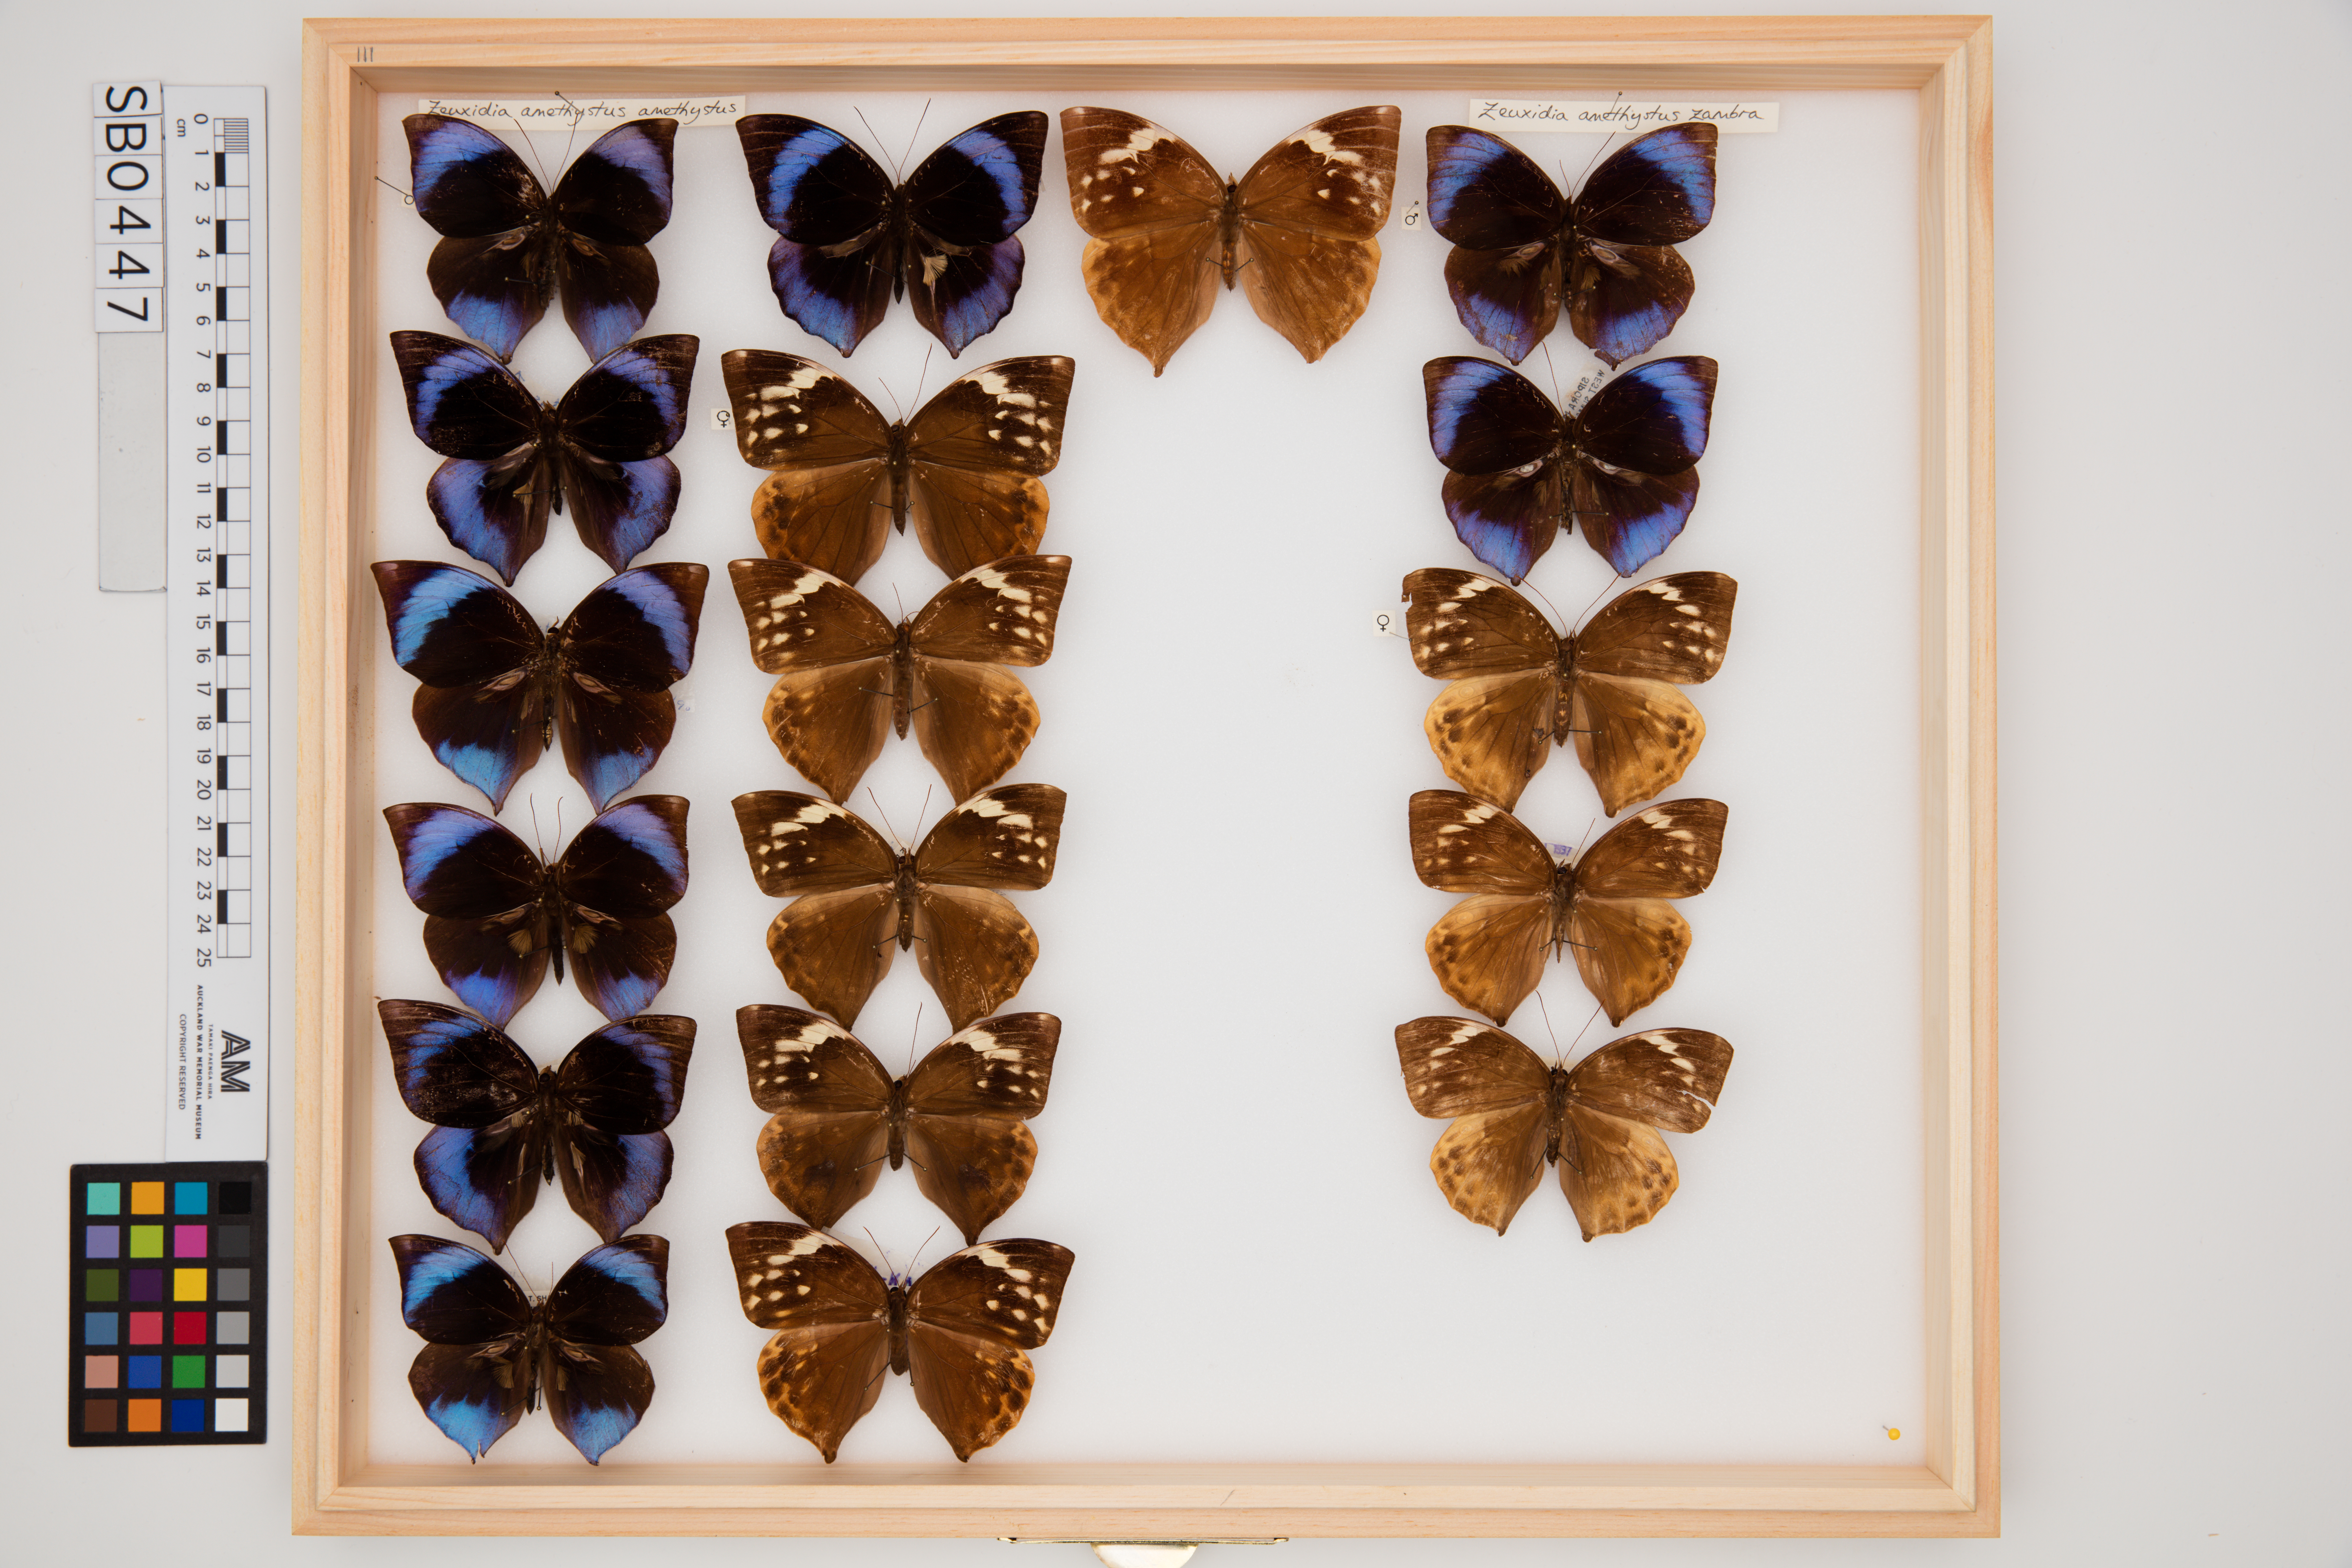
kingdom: Animalia
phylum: Arthropoda
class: Insecta
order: Lepidoptera
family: Nymphalidae
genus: Zeuxidia
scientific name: Zeuxidia ameythystus
